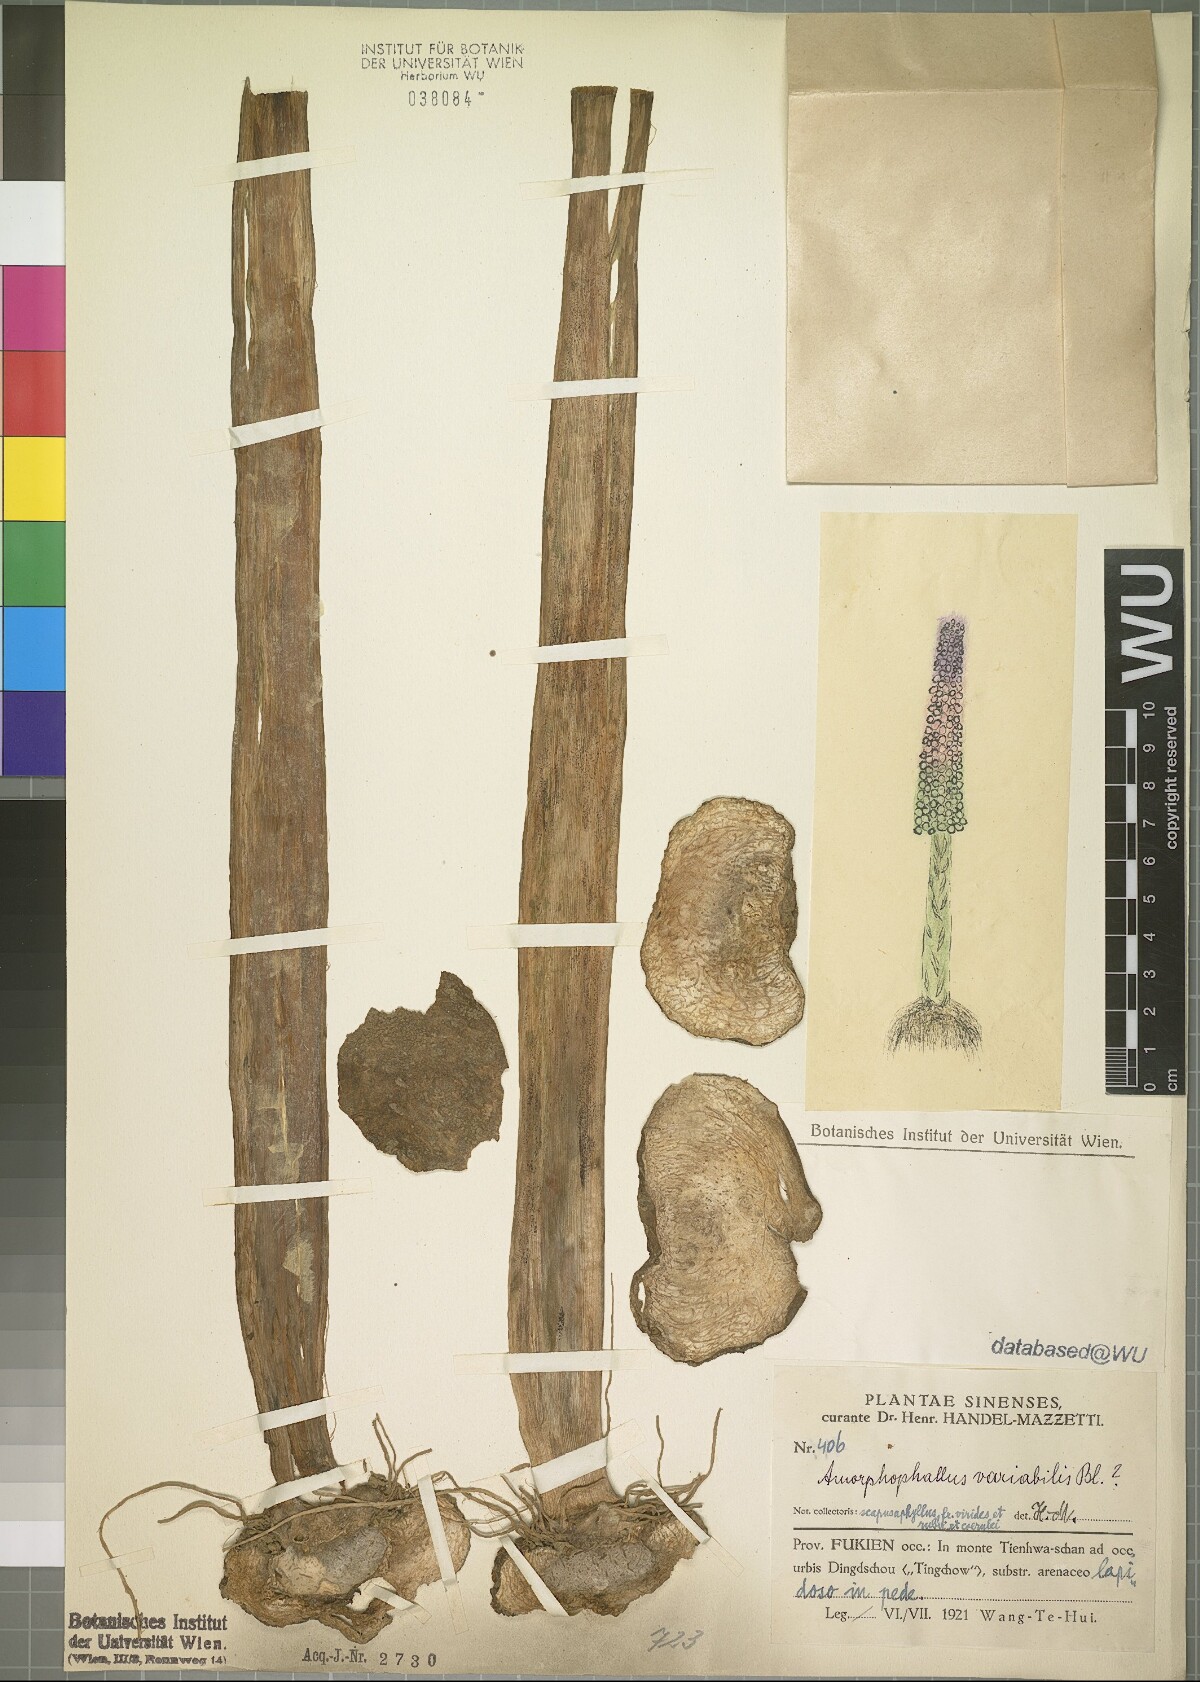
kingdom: Plantae
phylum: Tracheophyta
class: Liliopsida
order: Alismatales
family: Araceae
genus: Amorphophallus
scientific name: Amorphophallus variabilis
